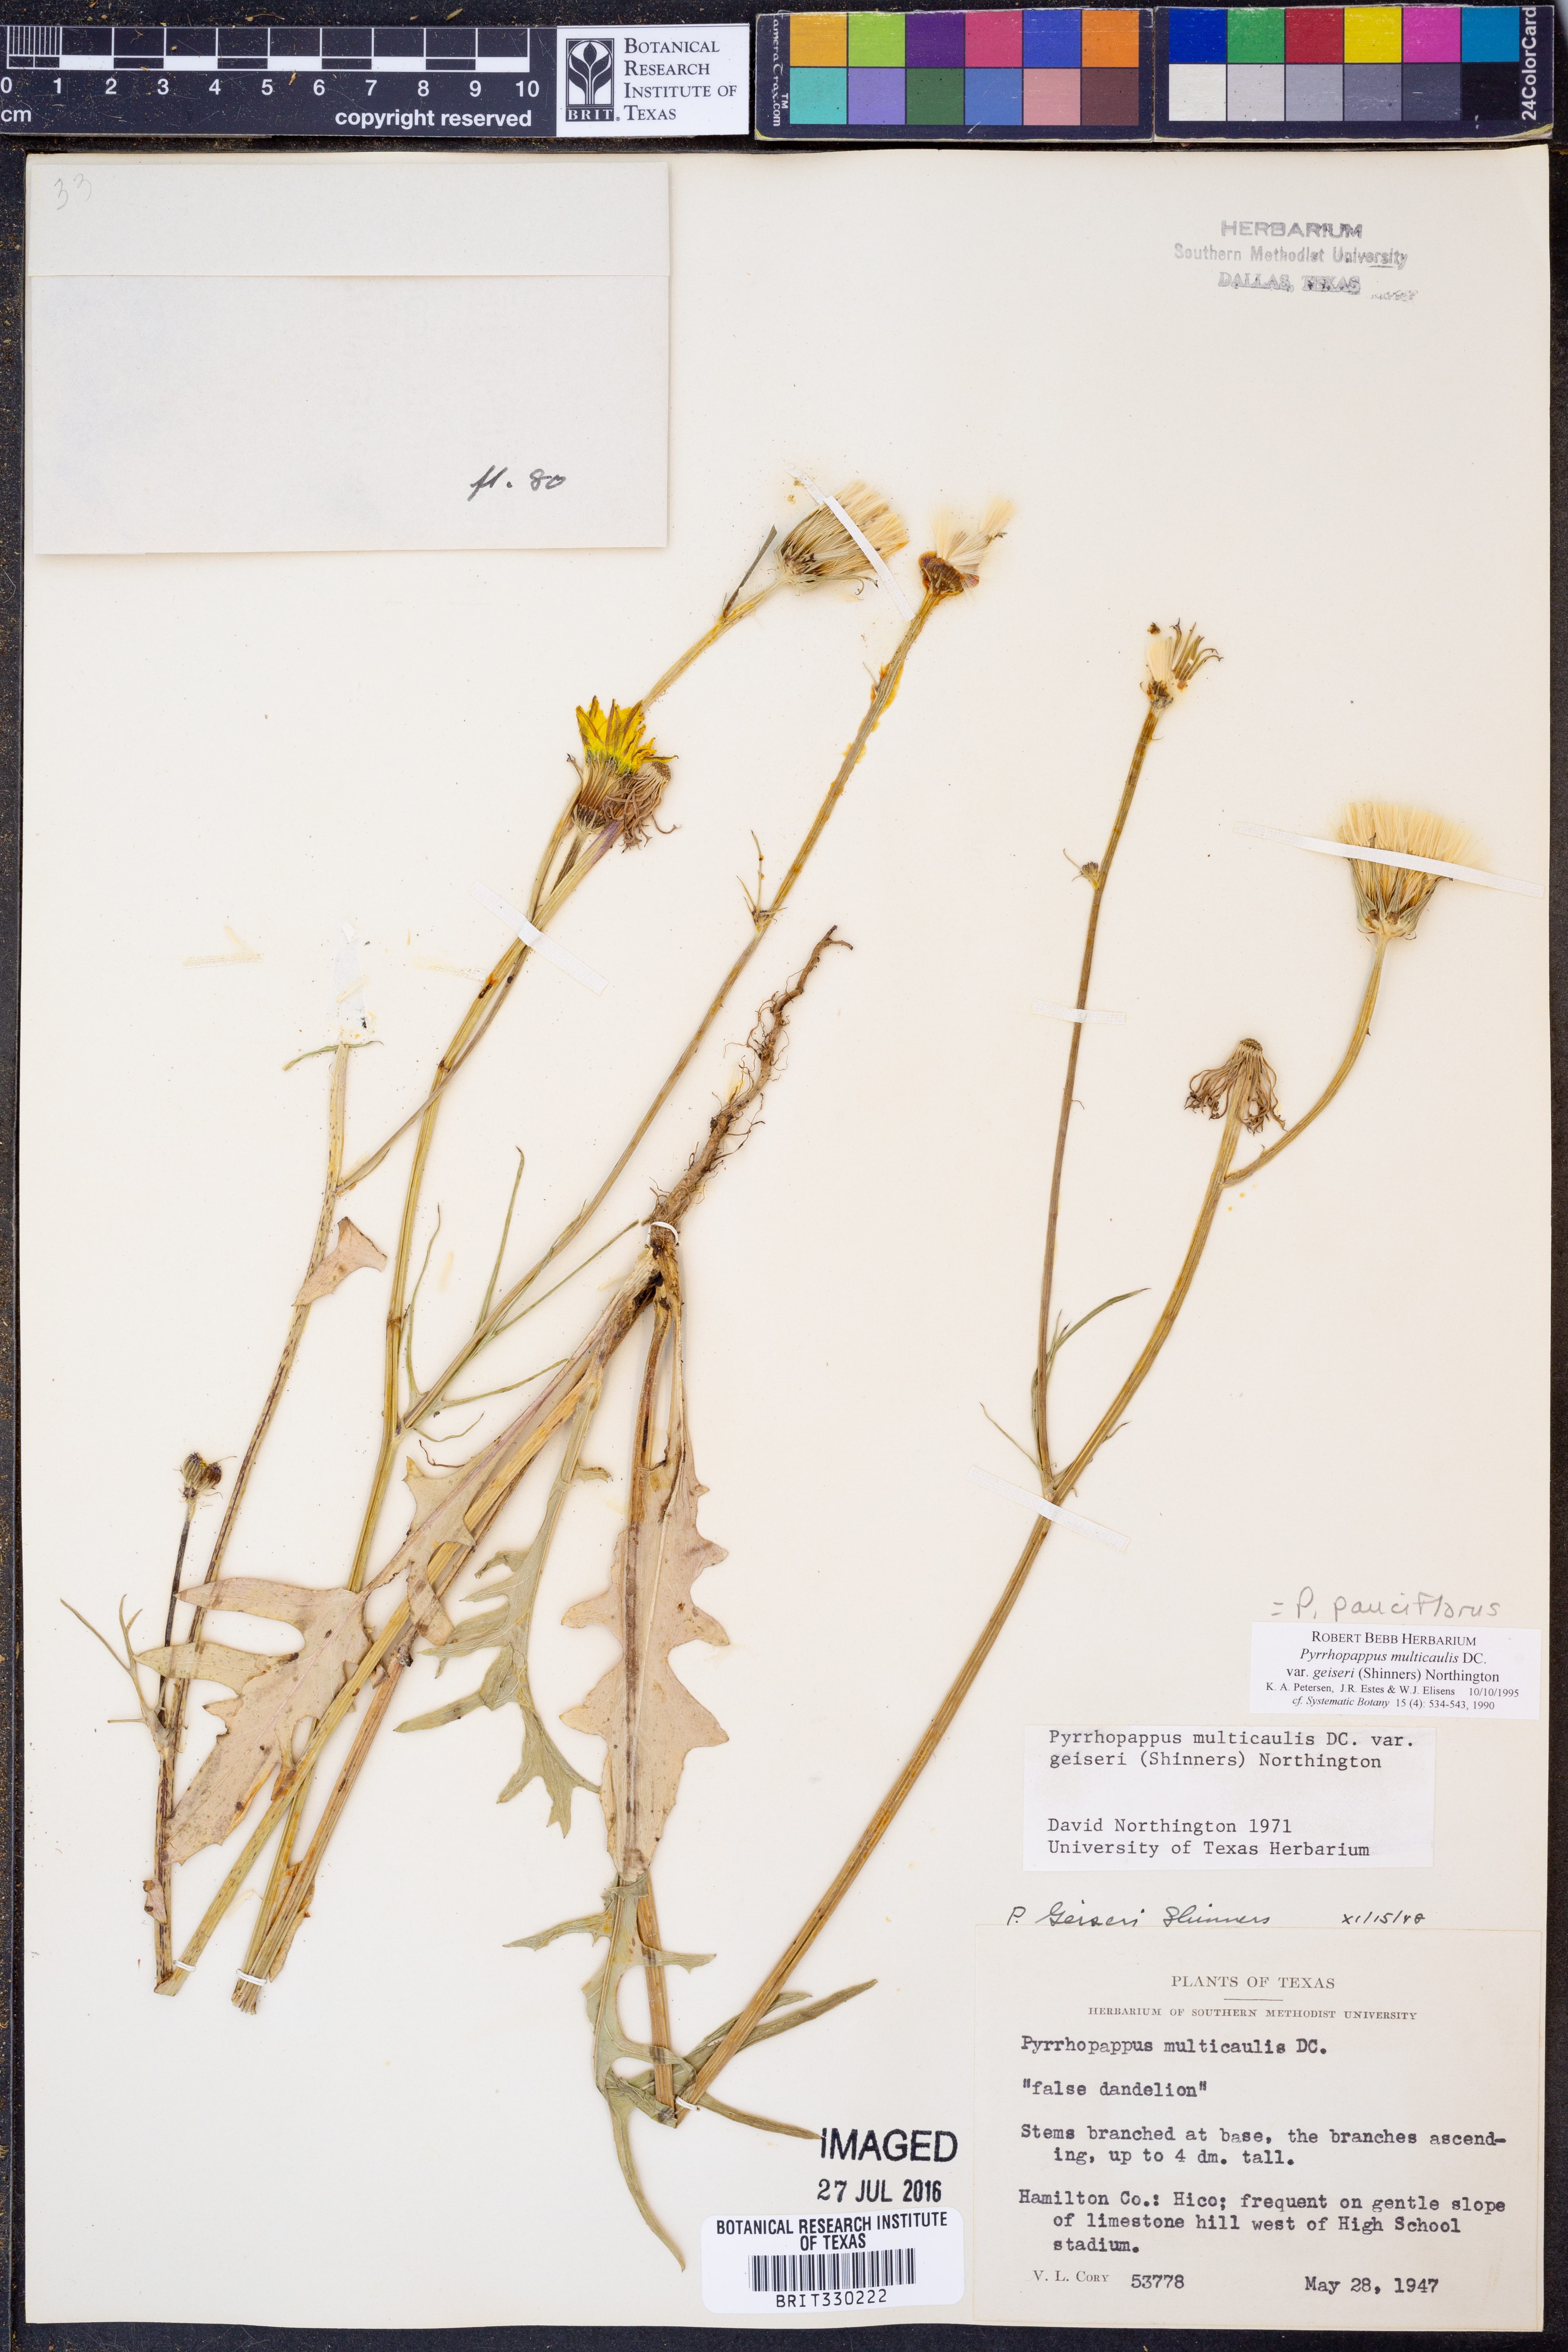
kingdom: Plantae
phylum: Tracheophyta
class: Magnoliopsida
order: Asterales
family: Asteraceae
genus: Pyrrhopappus
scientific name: Pyrrhopappus pauciflorus
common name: Texas false dandelion
